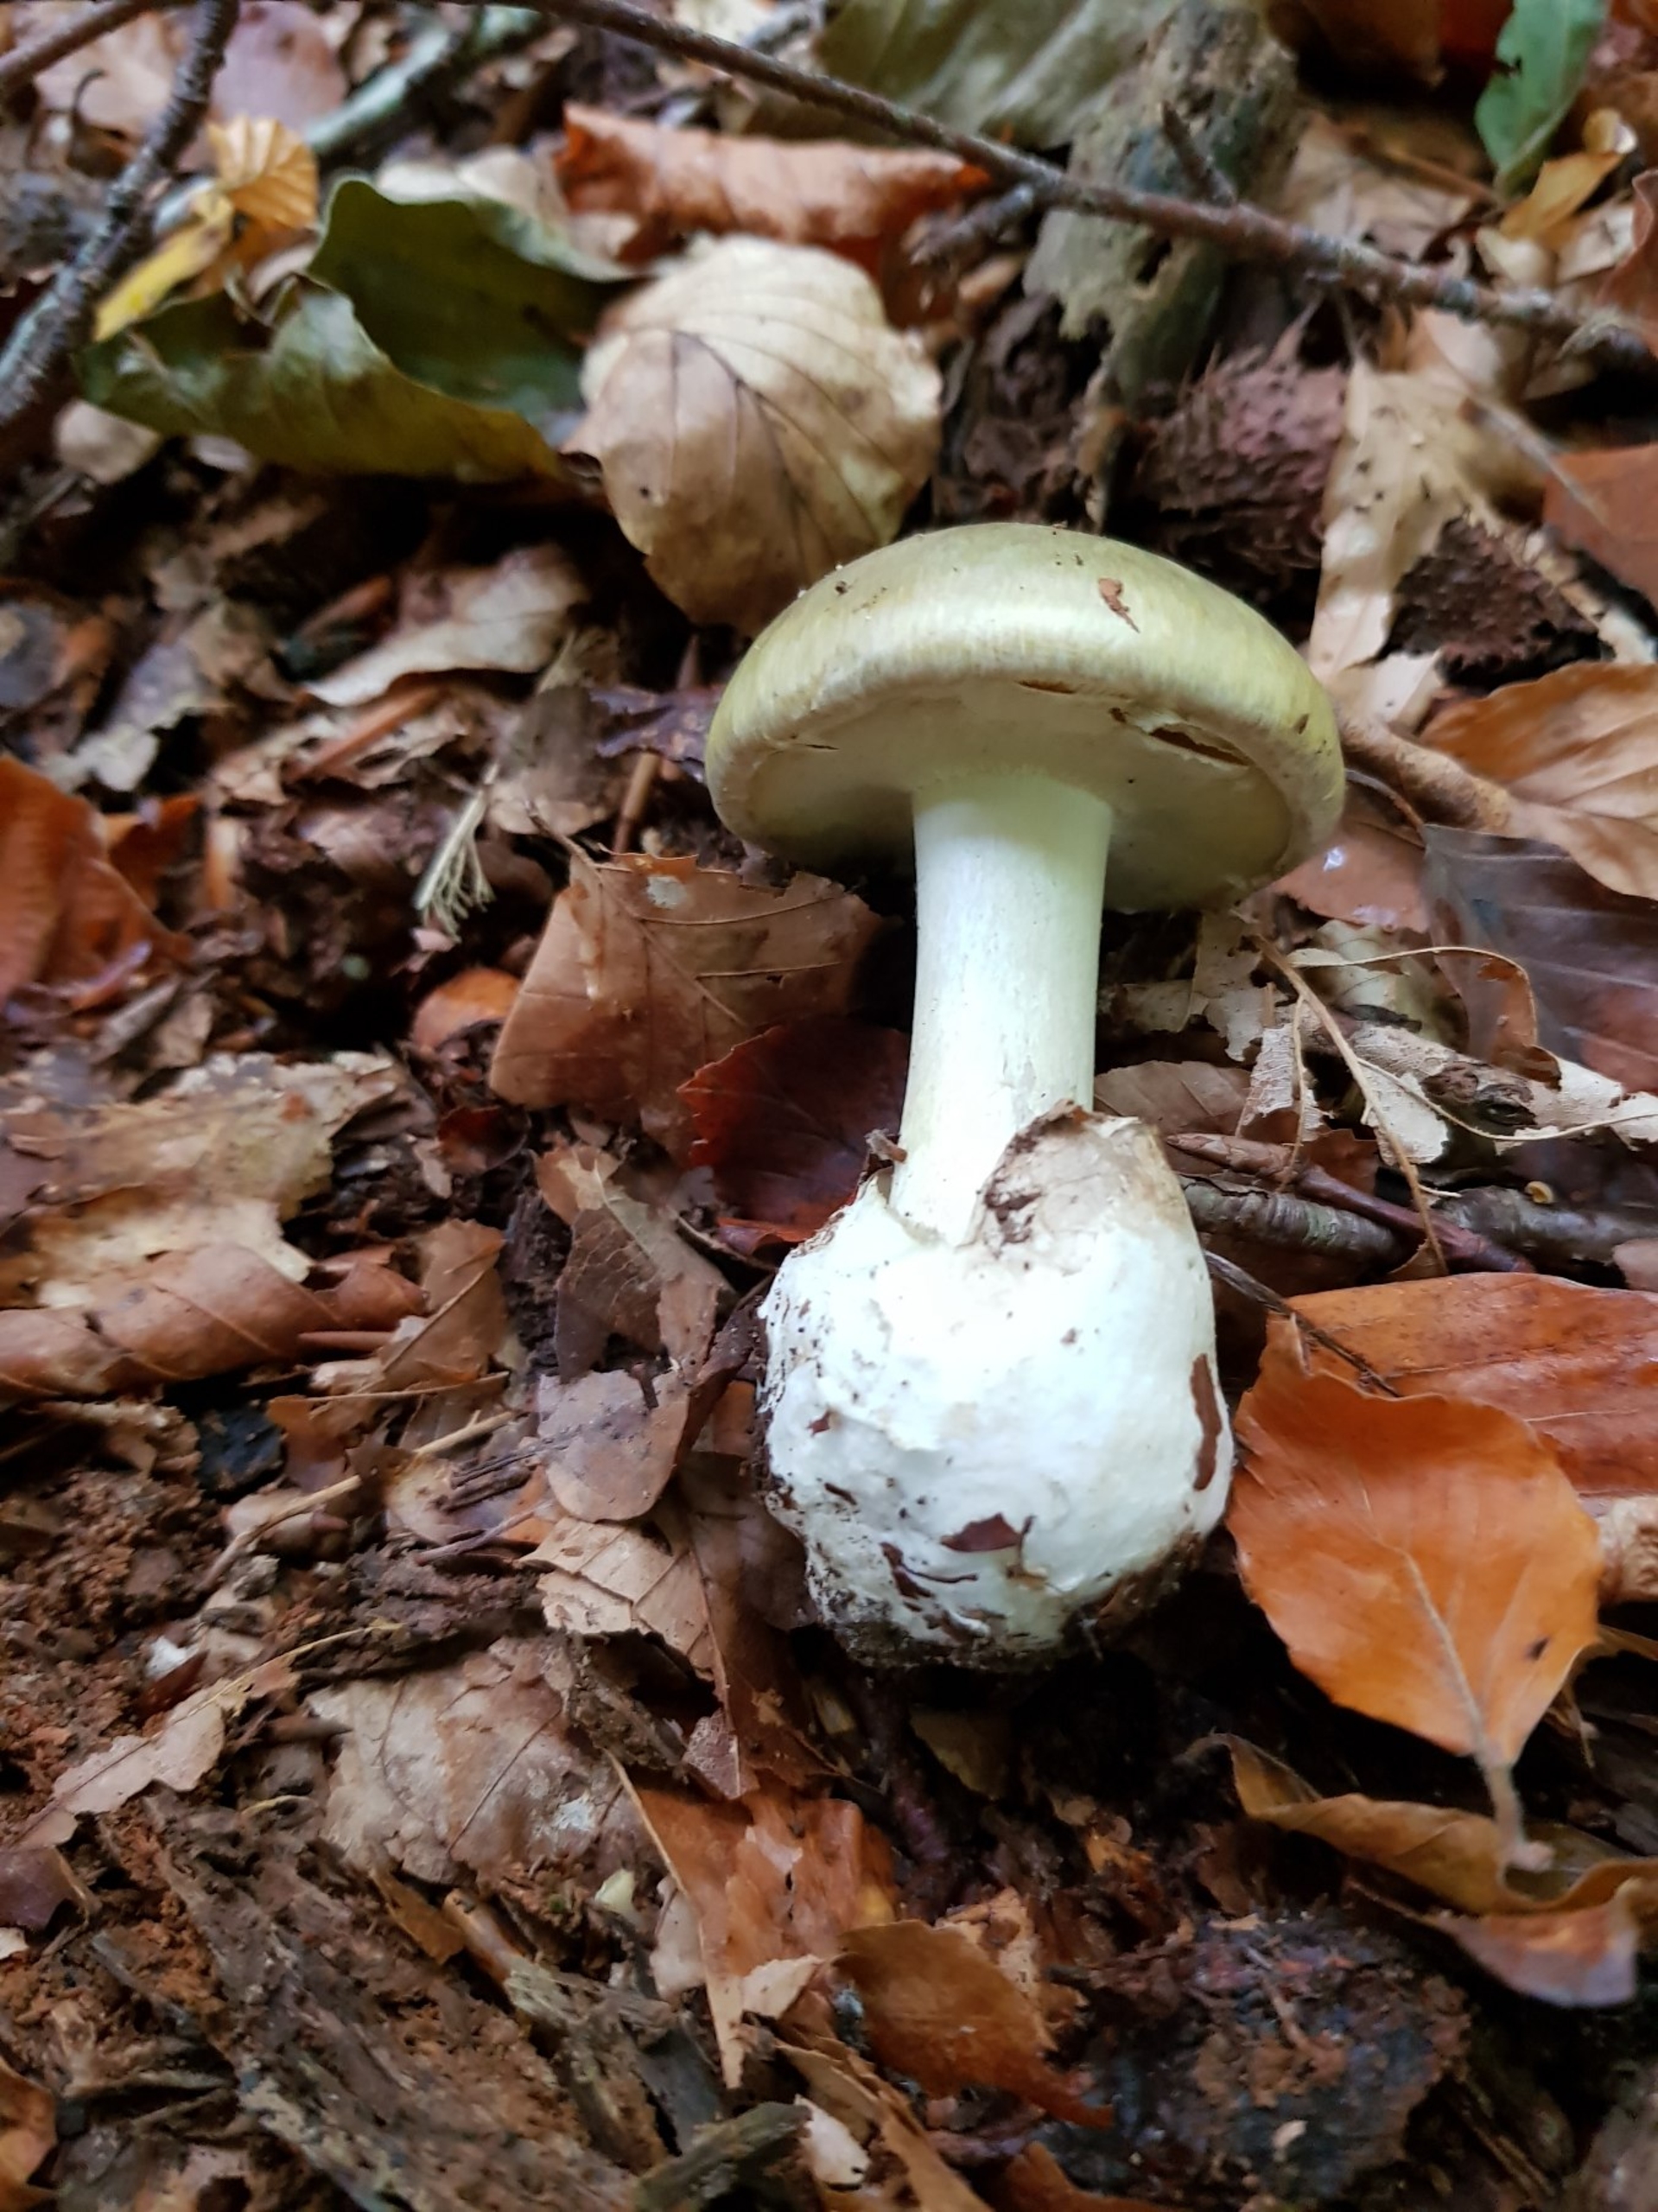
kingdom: Fungi
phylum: Basidiomycota
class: Agaricomycetes
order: Agaricales
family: Amanitaceae
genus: Amanita
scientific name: Amanita phalloides
